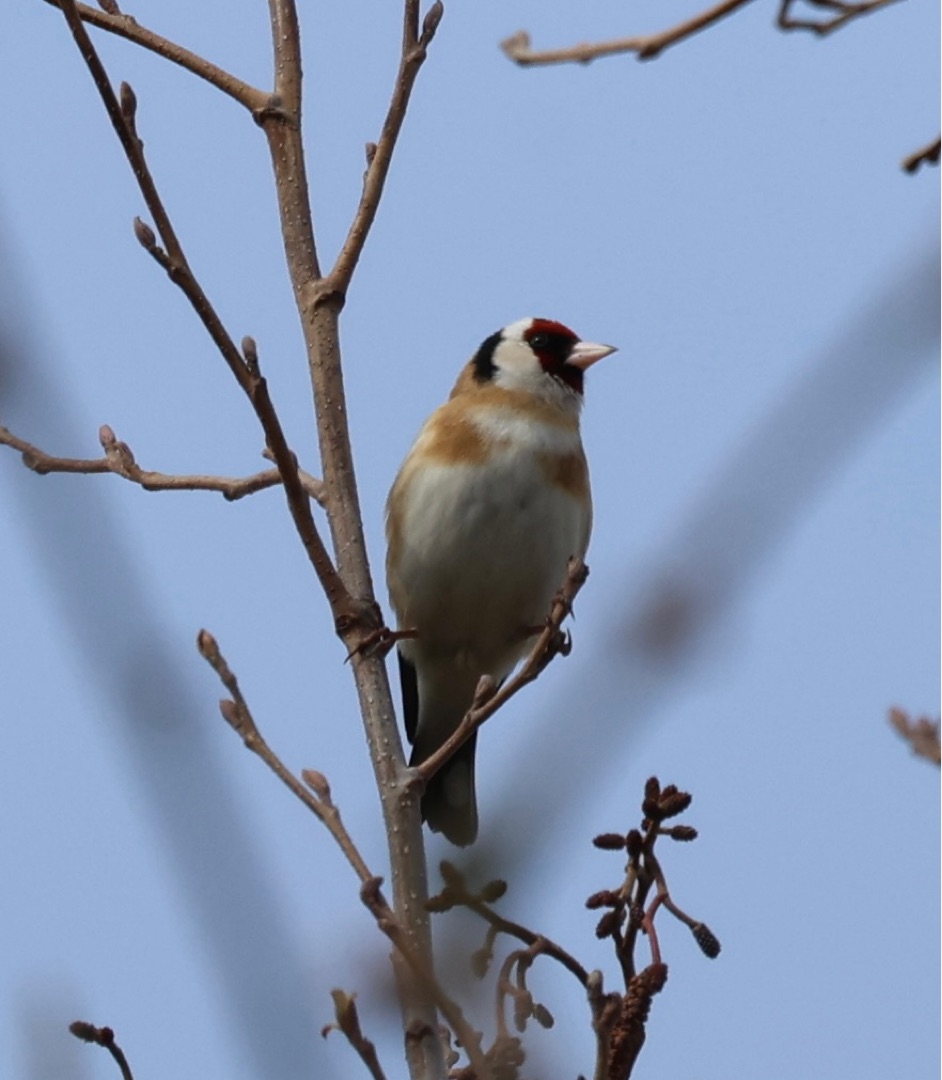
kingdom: Animalia
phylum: Chordata
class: Aves
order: Passeriformes
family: Fringillidae
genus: Carduelis
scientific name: Carduelis carduelis
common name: Stillits
